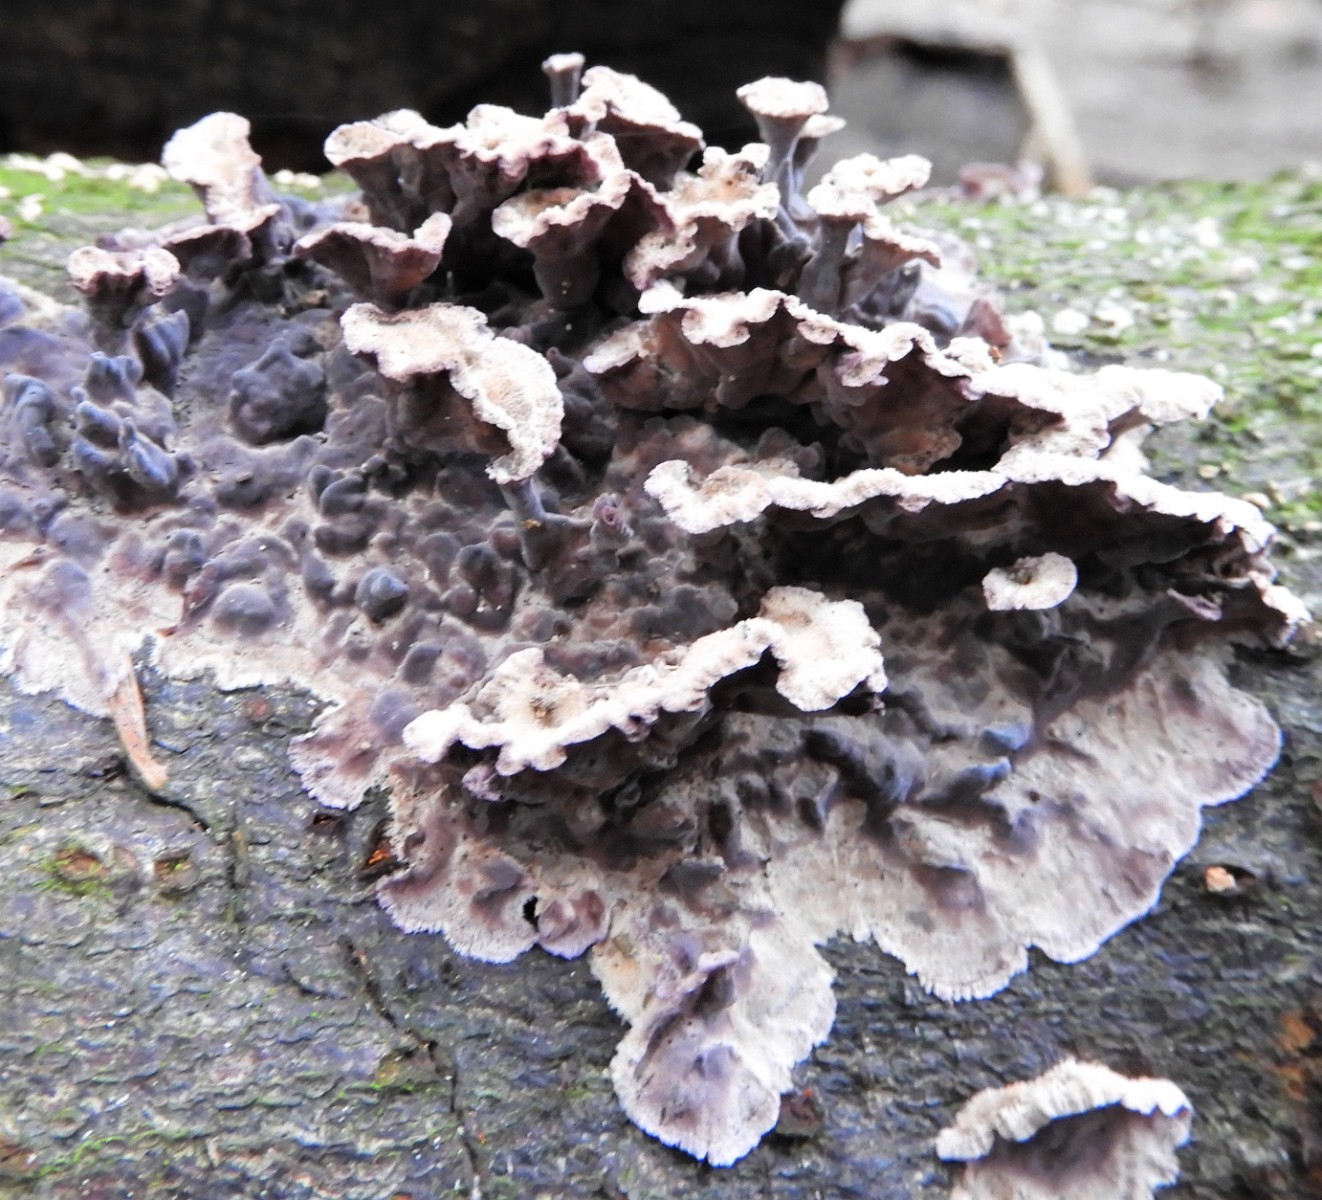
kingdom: Fungi
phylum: Basidiomycota
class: Agaricomycetes
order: Agaricales
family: Cyphellaceae
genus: Chondrostereum
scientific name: Chondrostereum purpureum
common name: purpurlædersvamp
